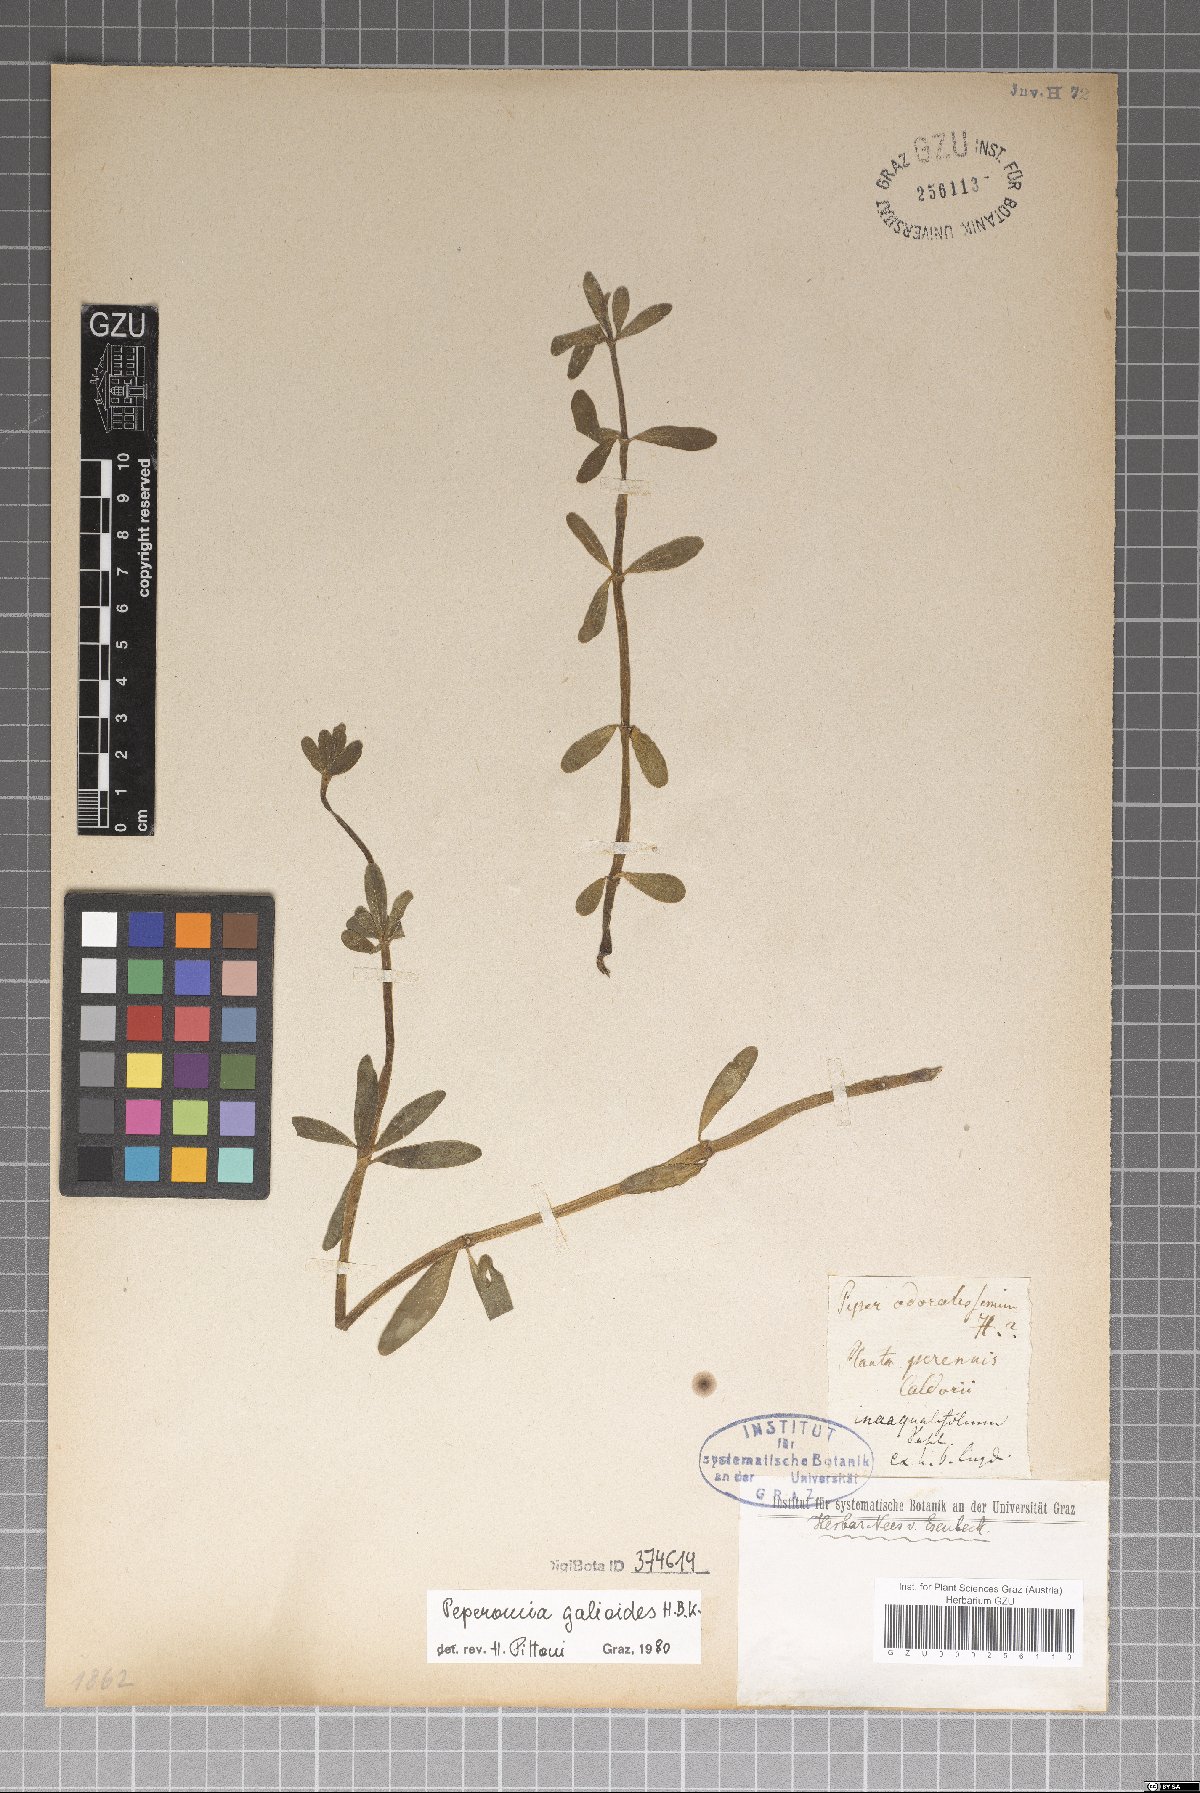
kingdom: Plantae
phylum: Tracheophyta
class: Magnoliopsida
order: Piperales
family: Piperaceae
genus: Peperomia
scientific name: Peperomia galioides
